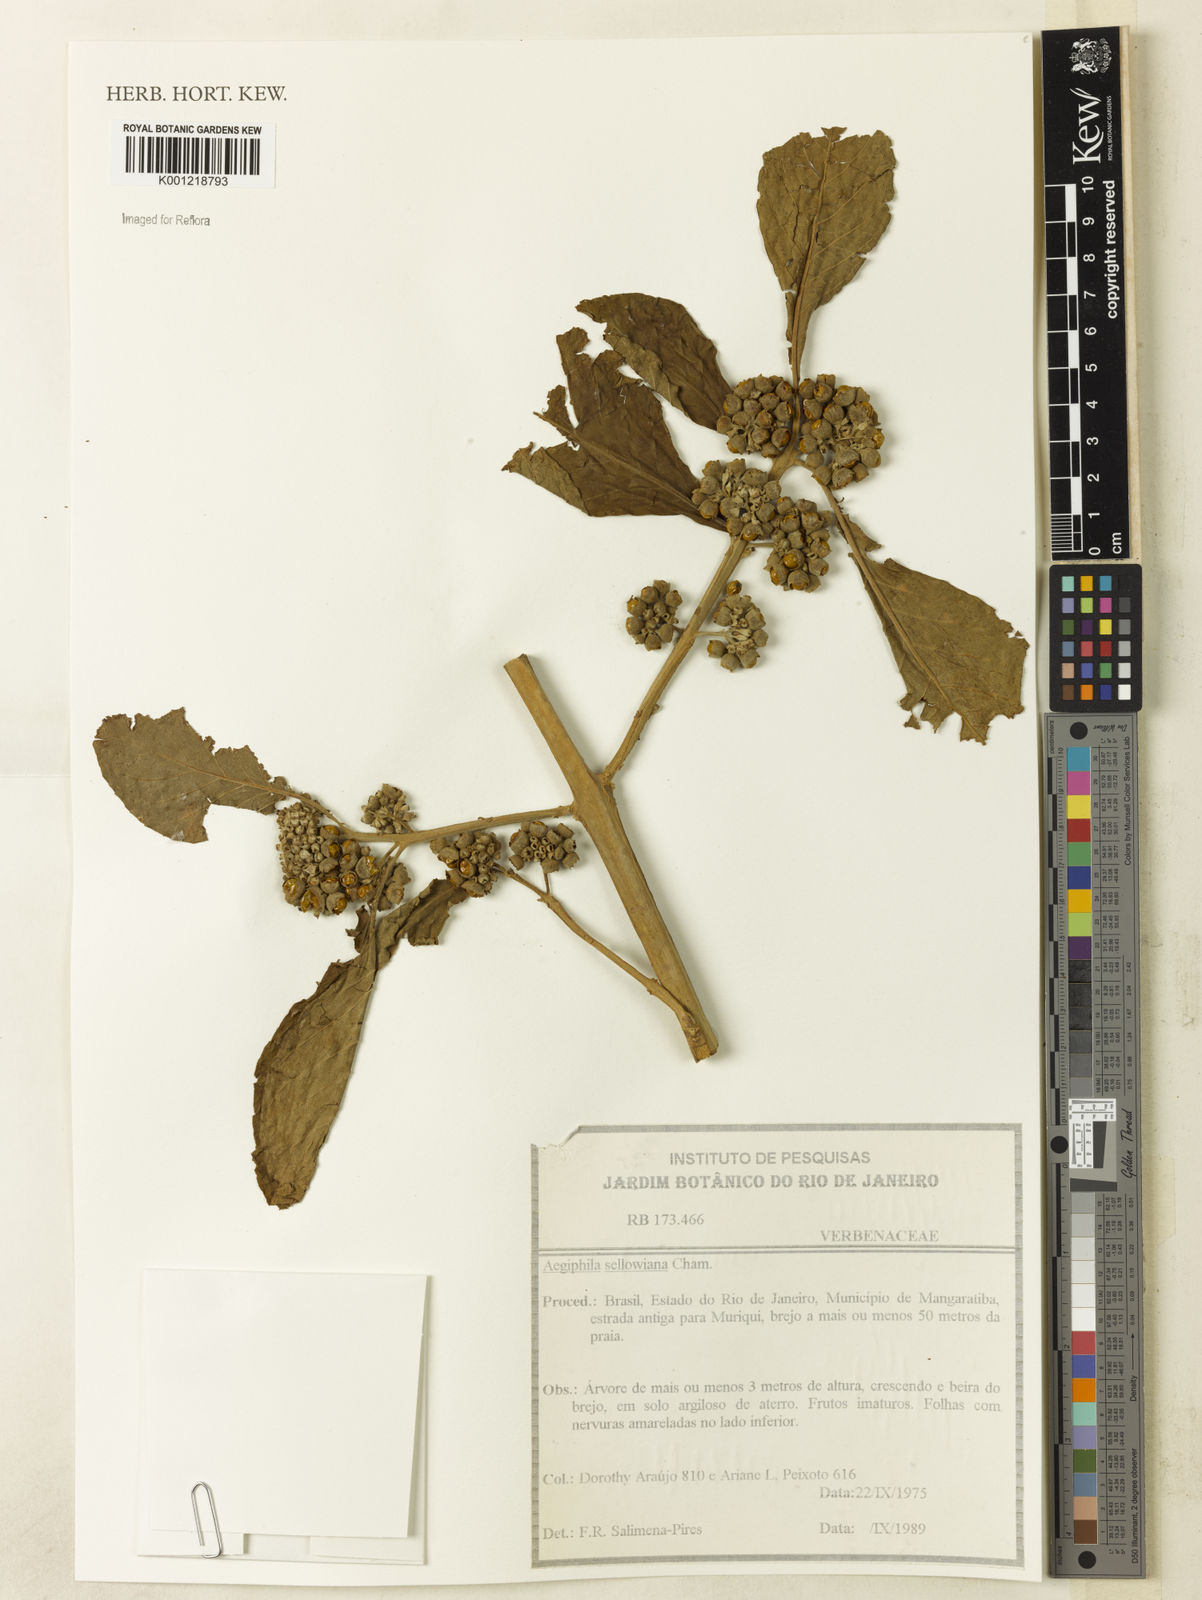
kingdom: Plantae
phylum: Tracheophyta
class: Magnoliopsida
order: Lamiales
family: Lamiaceae
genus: Aegiphila
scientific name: Aegiphila verticillata
